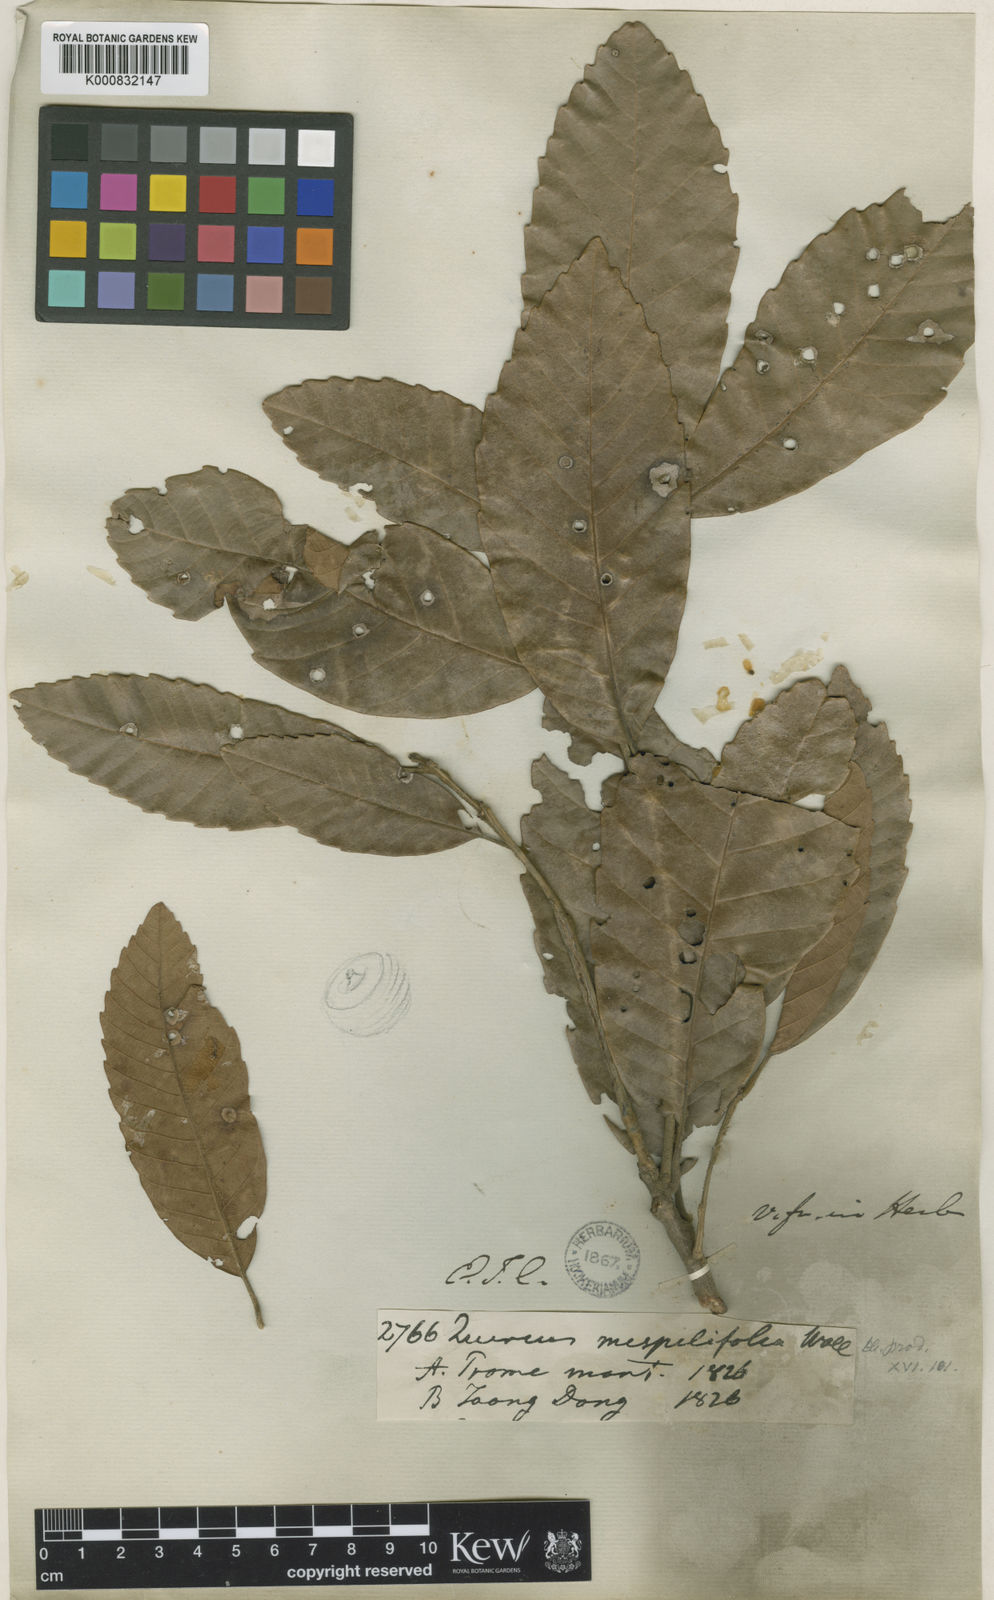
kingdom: Plantae
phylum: Tracheophyta
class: Magnoliopsida
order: Fagales
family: Fagaceae
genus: Quercus
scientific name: Quercus
